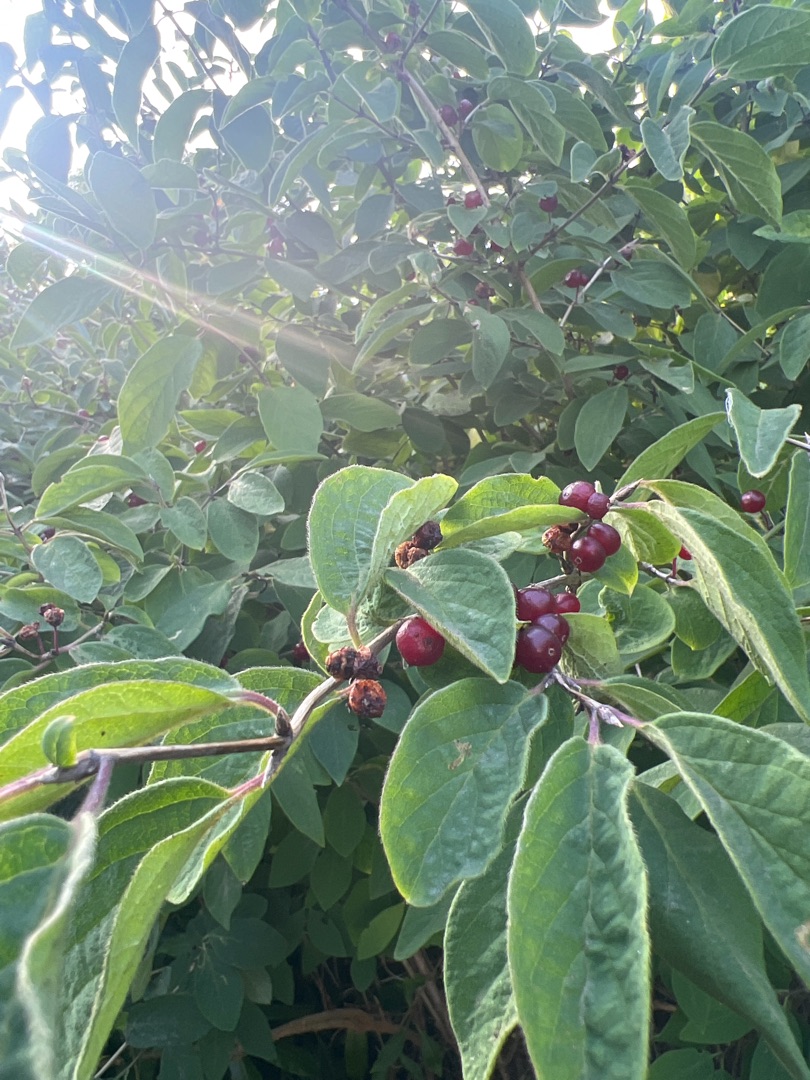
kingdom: Plantae
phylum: Tracheophyta
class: Magnoliopsida
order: Dipsacales
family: Caprifoliaceae
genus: Lonicera
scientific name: Lonicera xylosteum
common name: Dunet gedeblad
